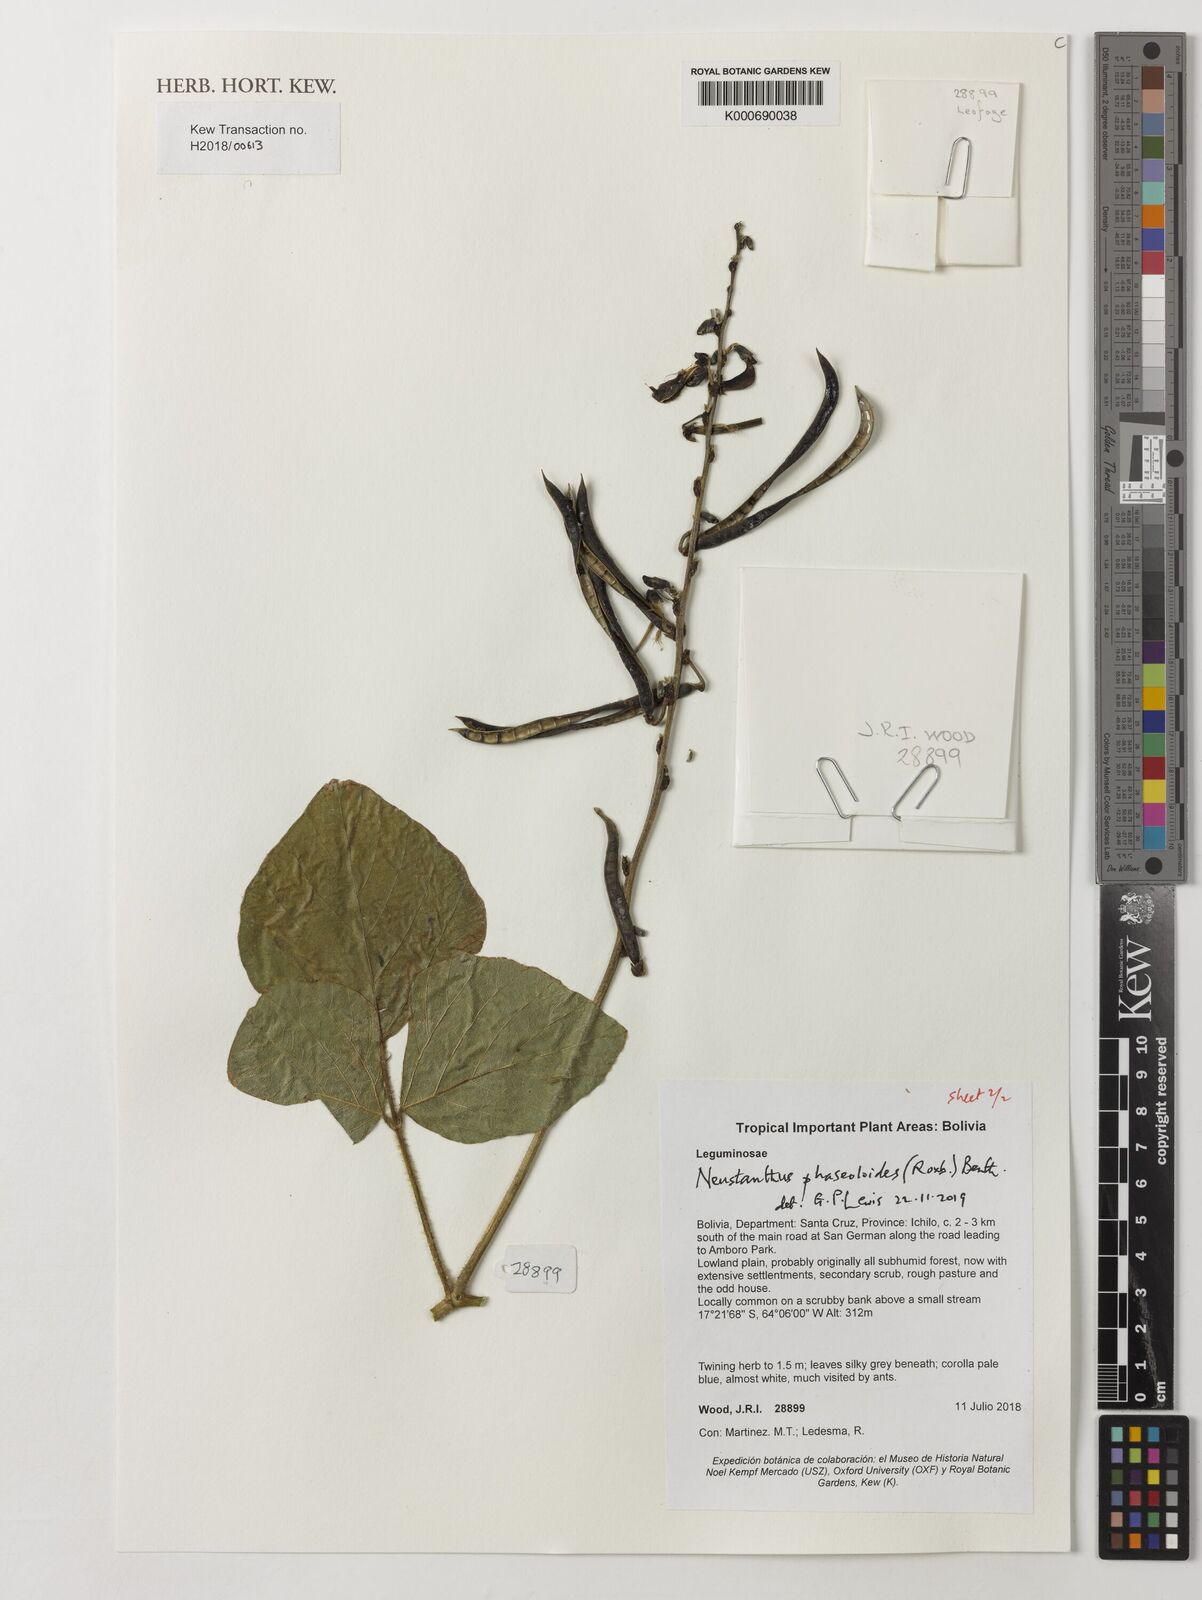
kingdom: Plantae
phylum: Tracheophyta
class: Magnoliopsida
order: Fabales
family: Fabaceae
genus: Neustanthus
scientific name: Neustanthus phaseoloides
